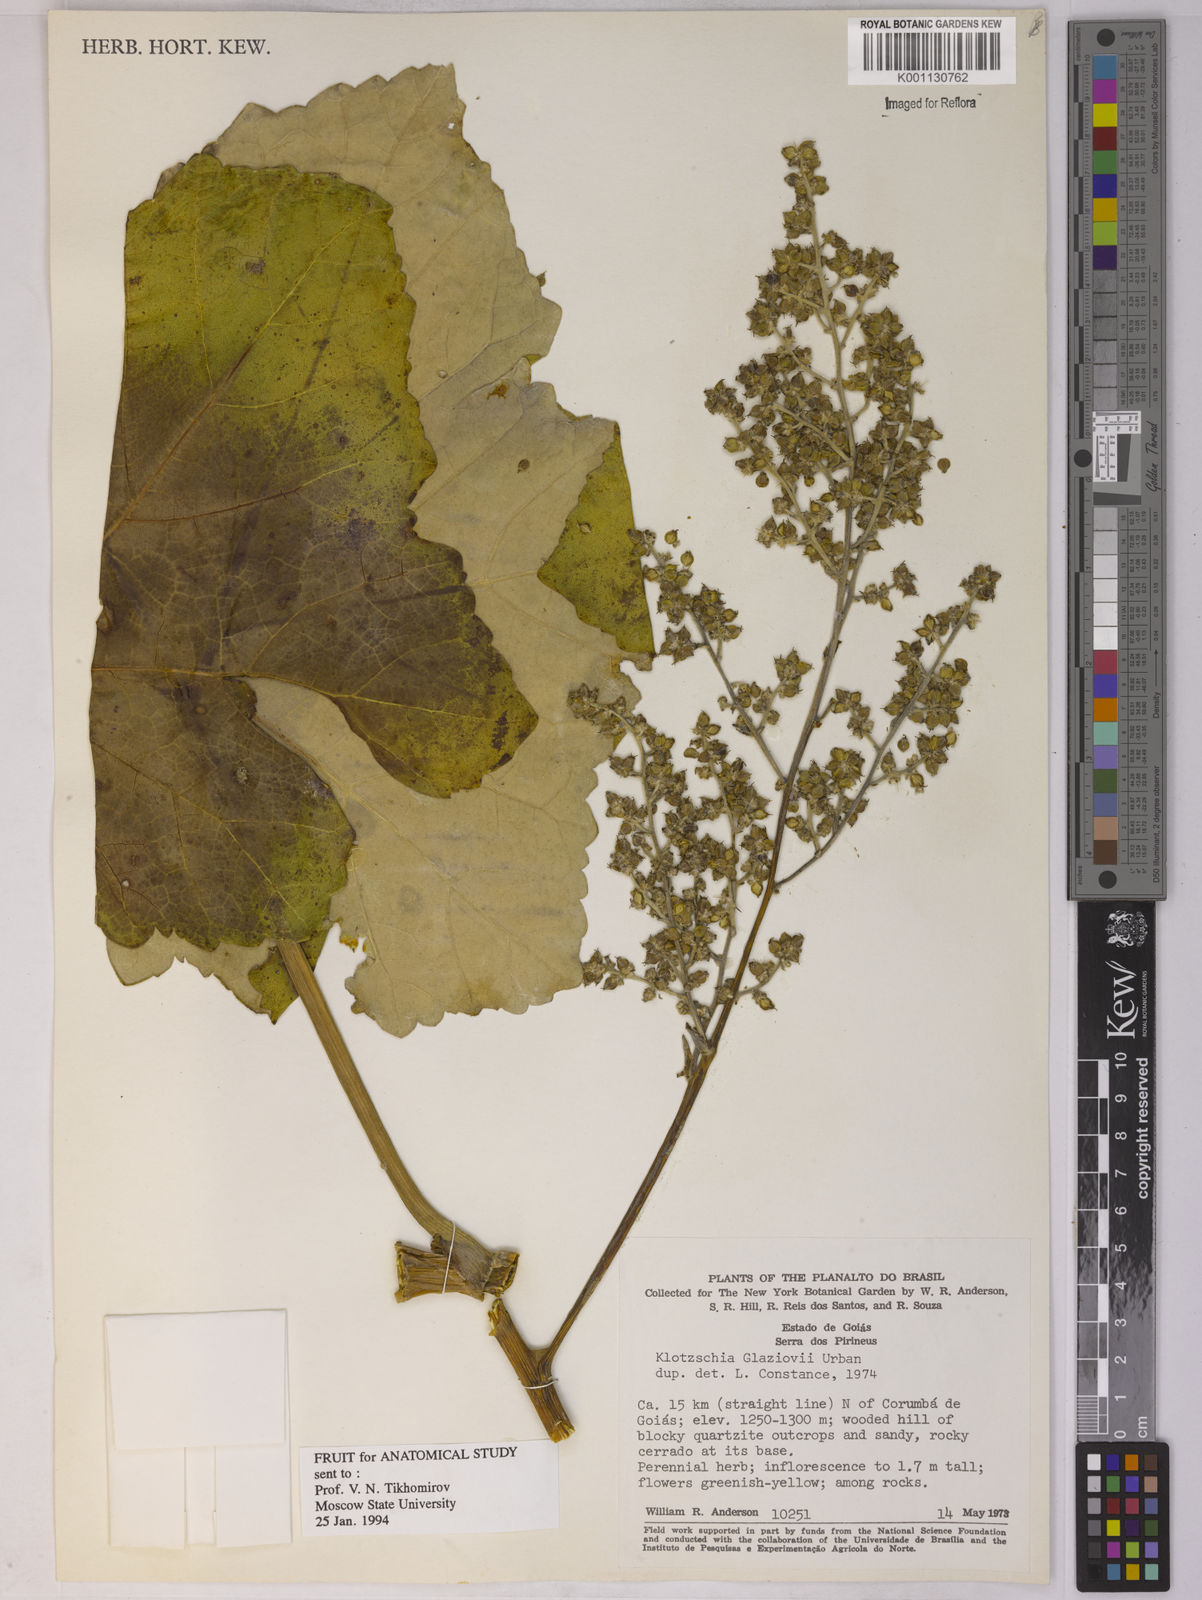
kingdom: Plantae
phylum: Tracheophyta
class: Magnoliopsida
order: Apiales
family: Apiaceae
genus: Klotzschia
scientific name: Klotzschia glaziovii
